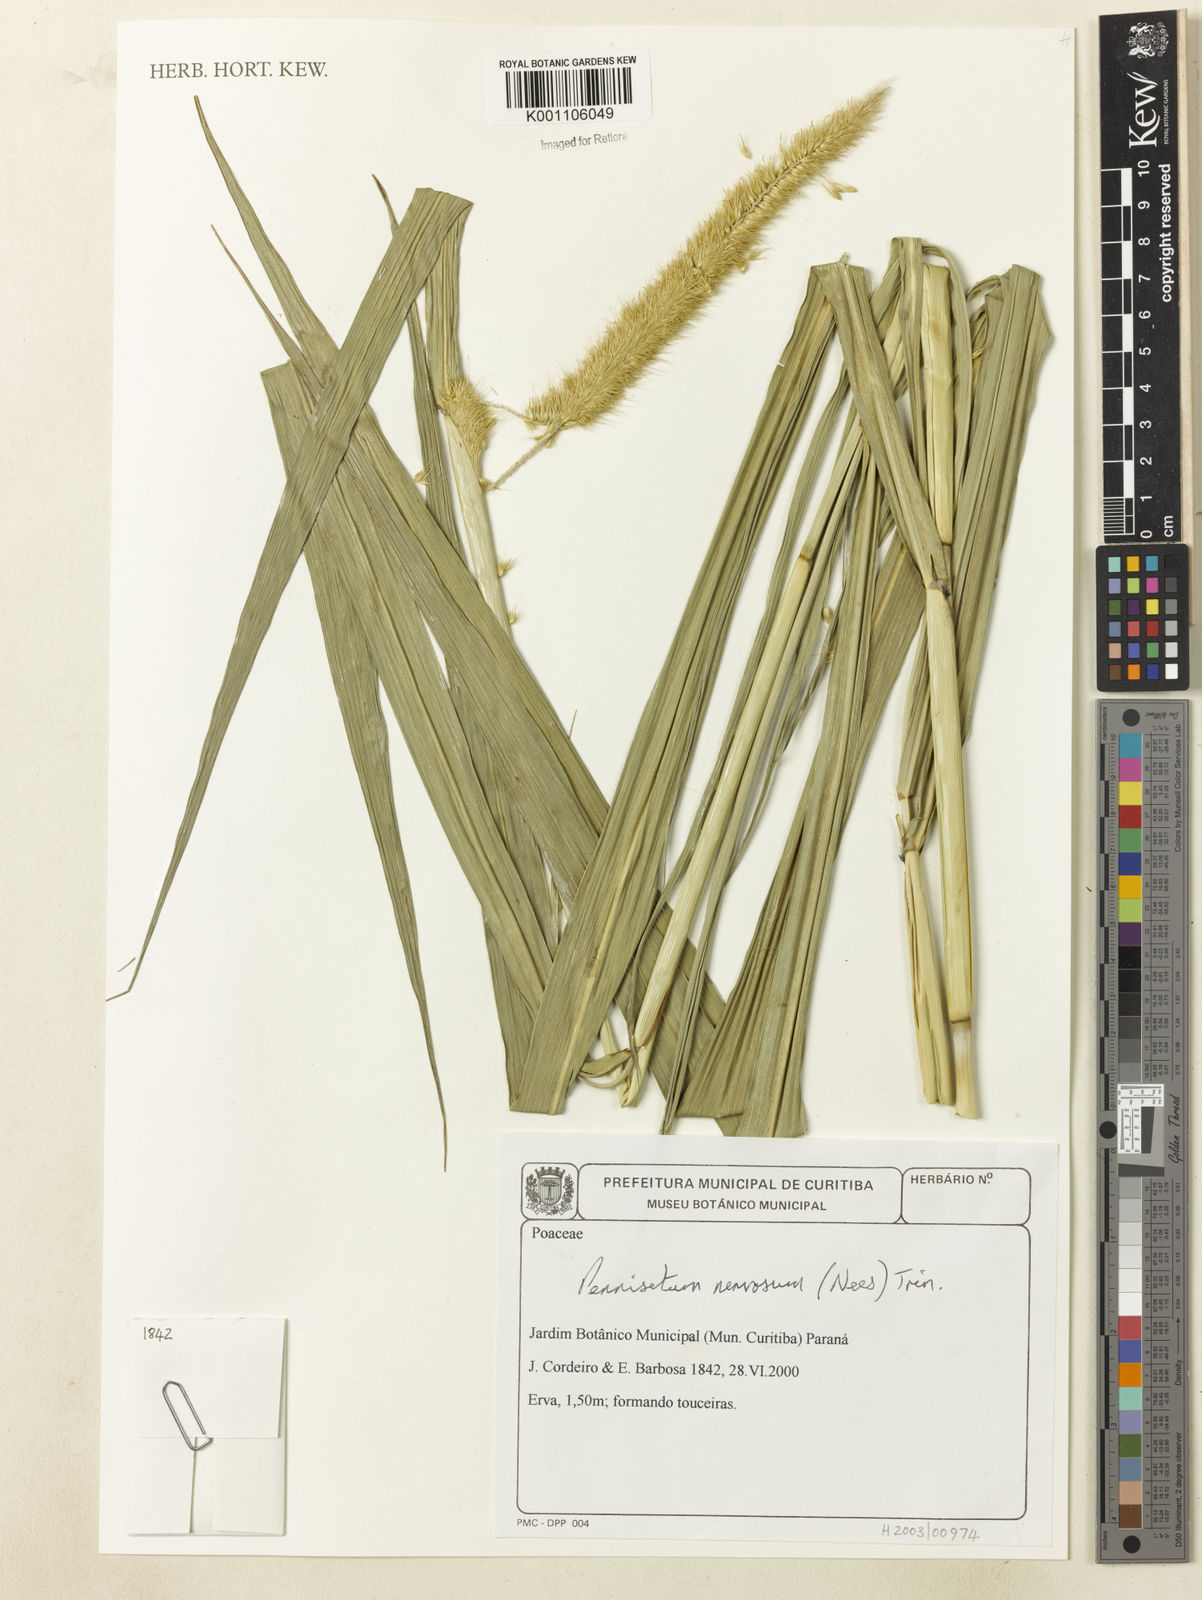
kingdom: Plantae
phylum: Tracheophyta
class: Liliopsida
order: Poales
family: Poaceae
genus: Cenchrus
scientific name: Cenchrus nervosus
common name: Bentspike fountaingrass
